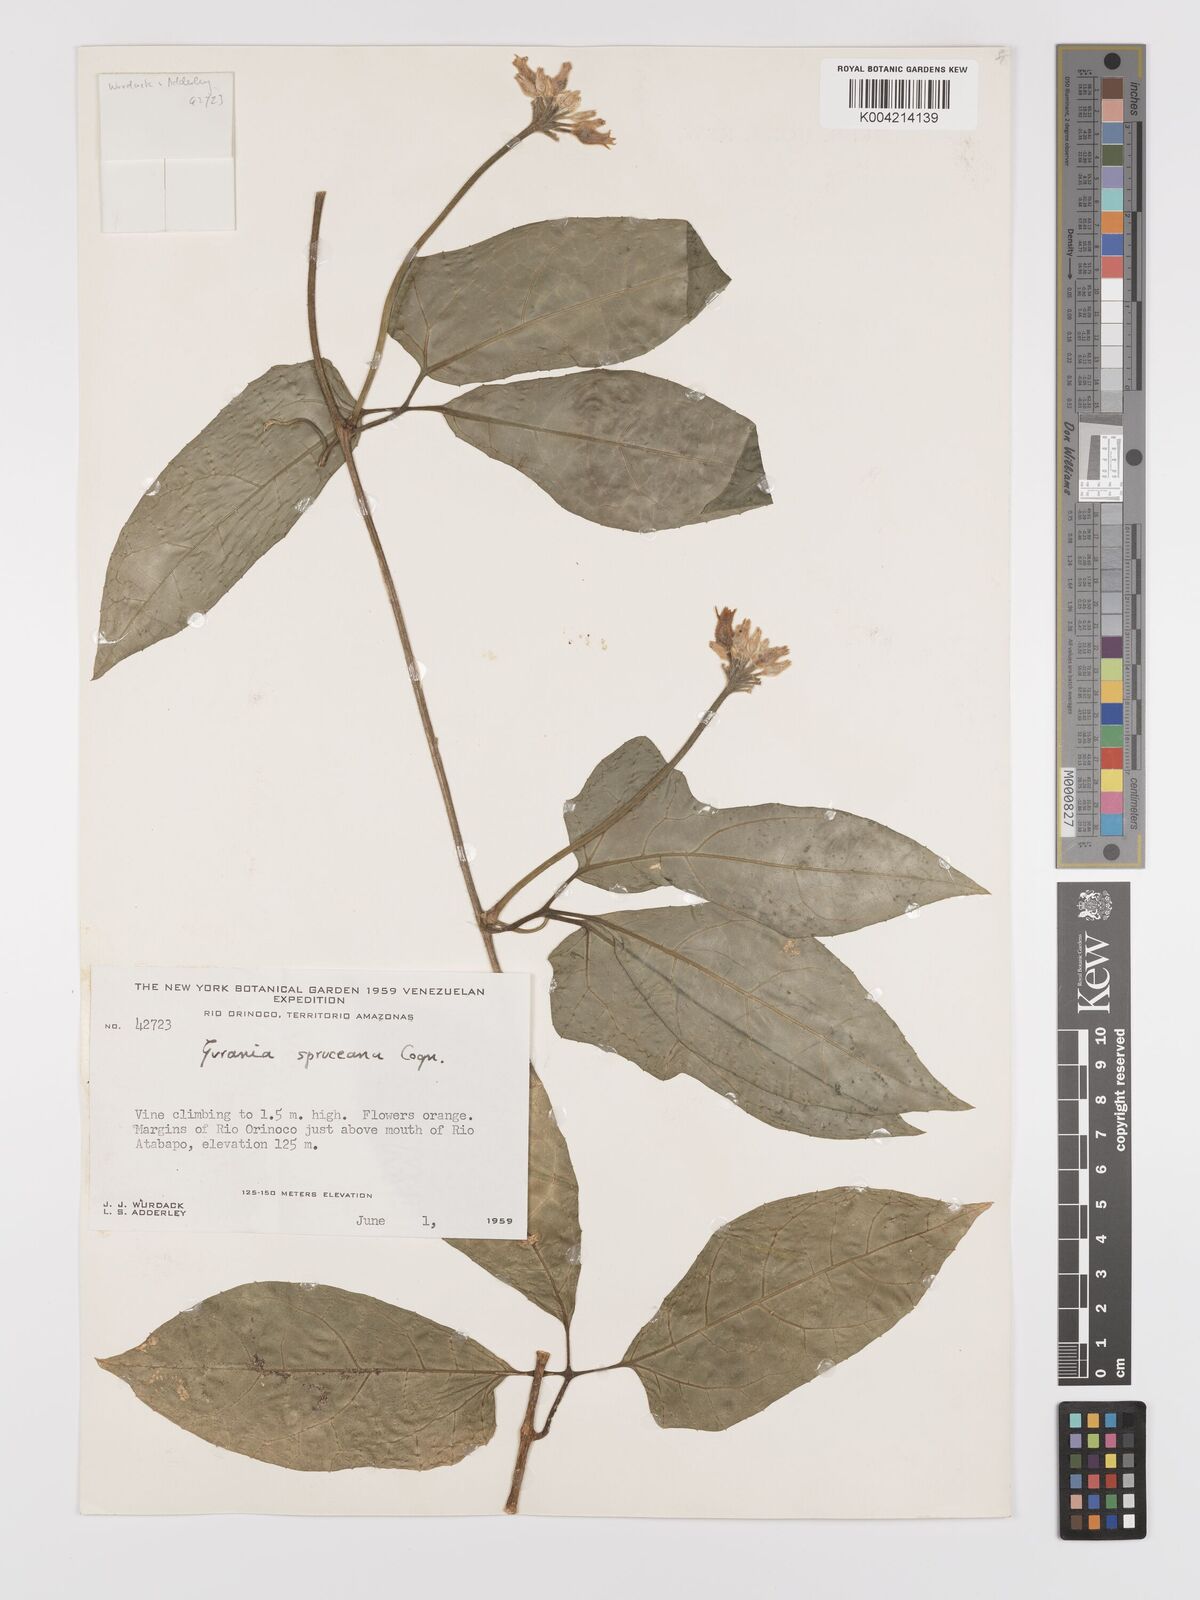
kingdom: Plantae
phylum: Tracheophyta
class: Magnoliopsida
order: Cucurbitales
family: Cucurbitaceae
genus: Gurania
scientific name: Gurania spruceana
